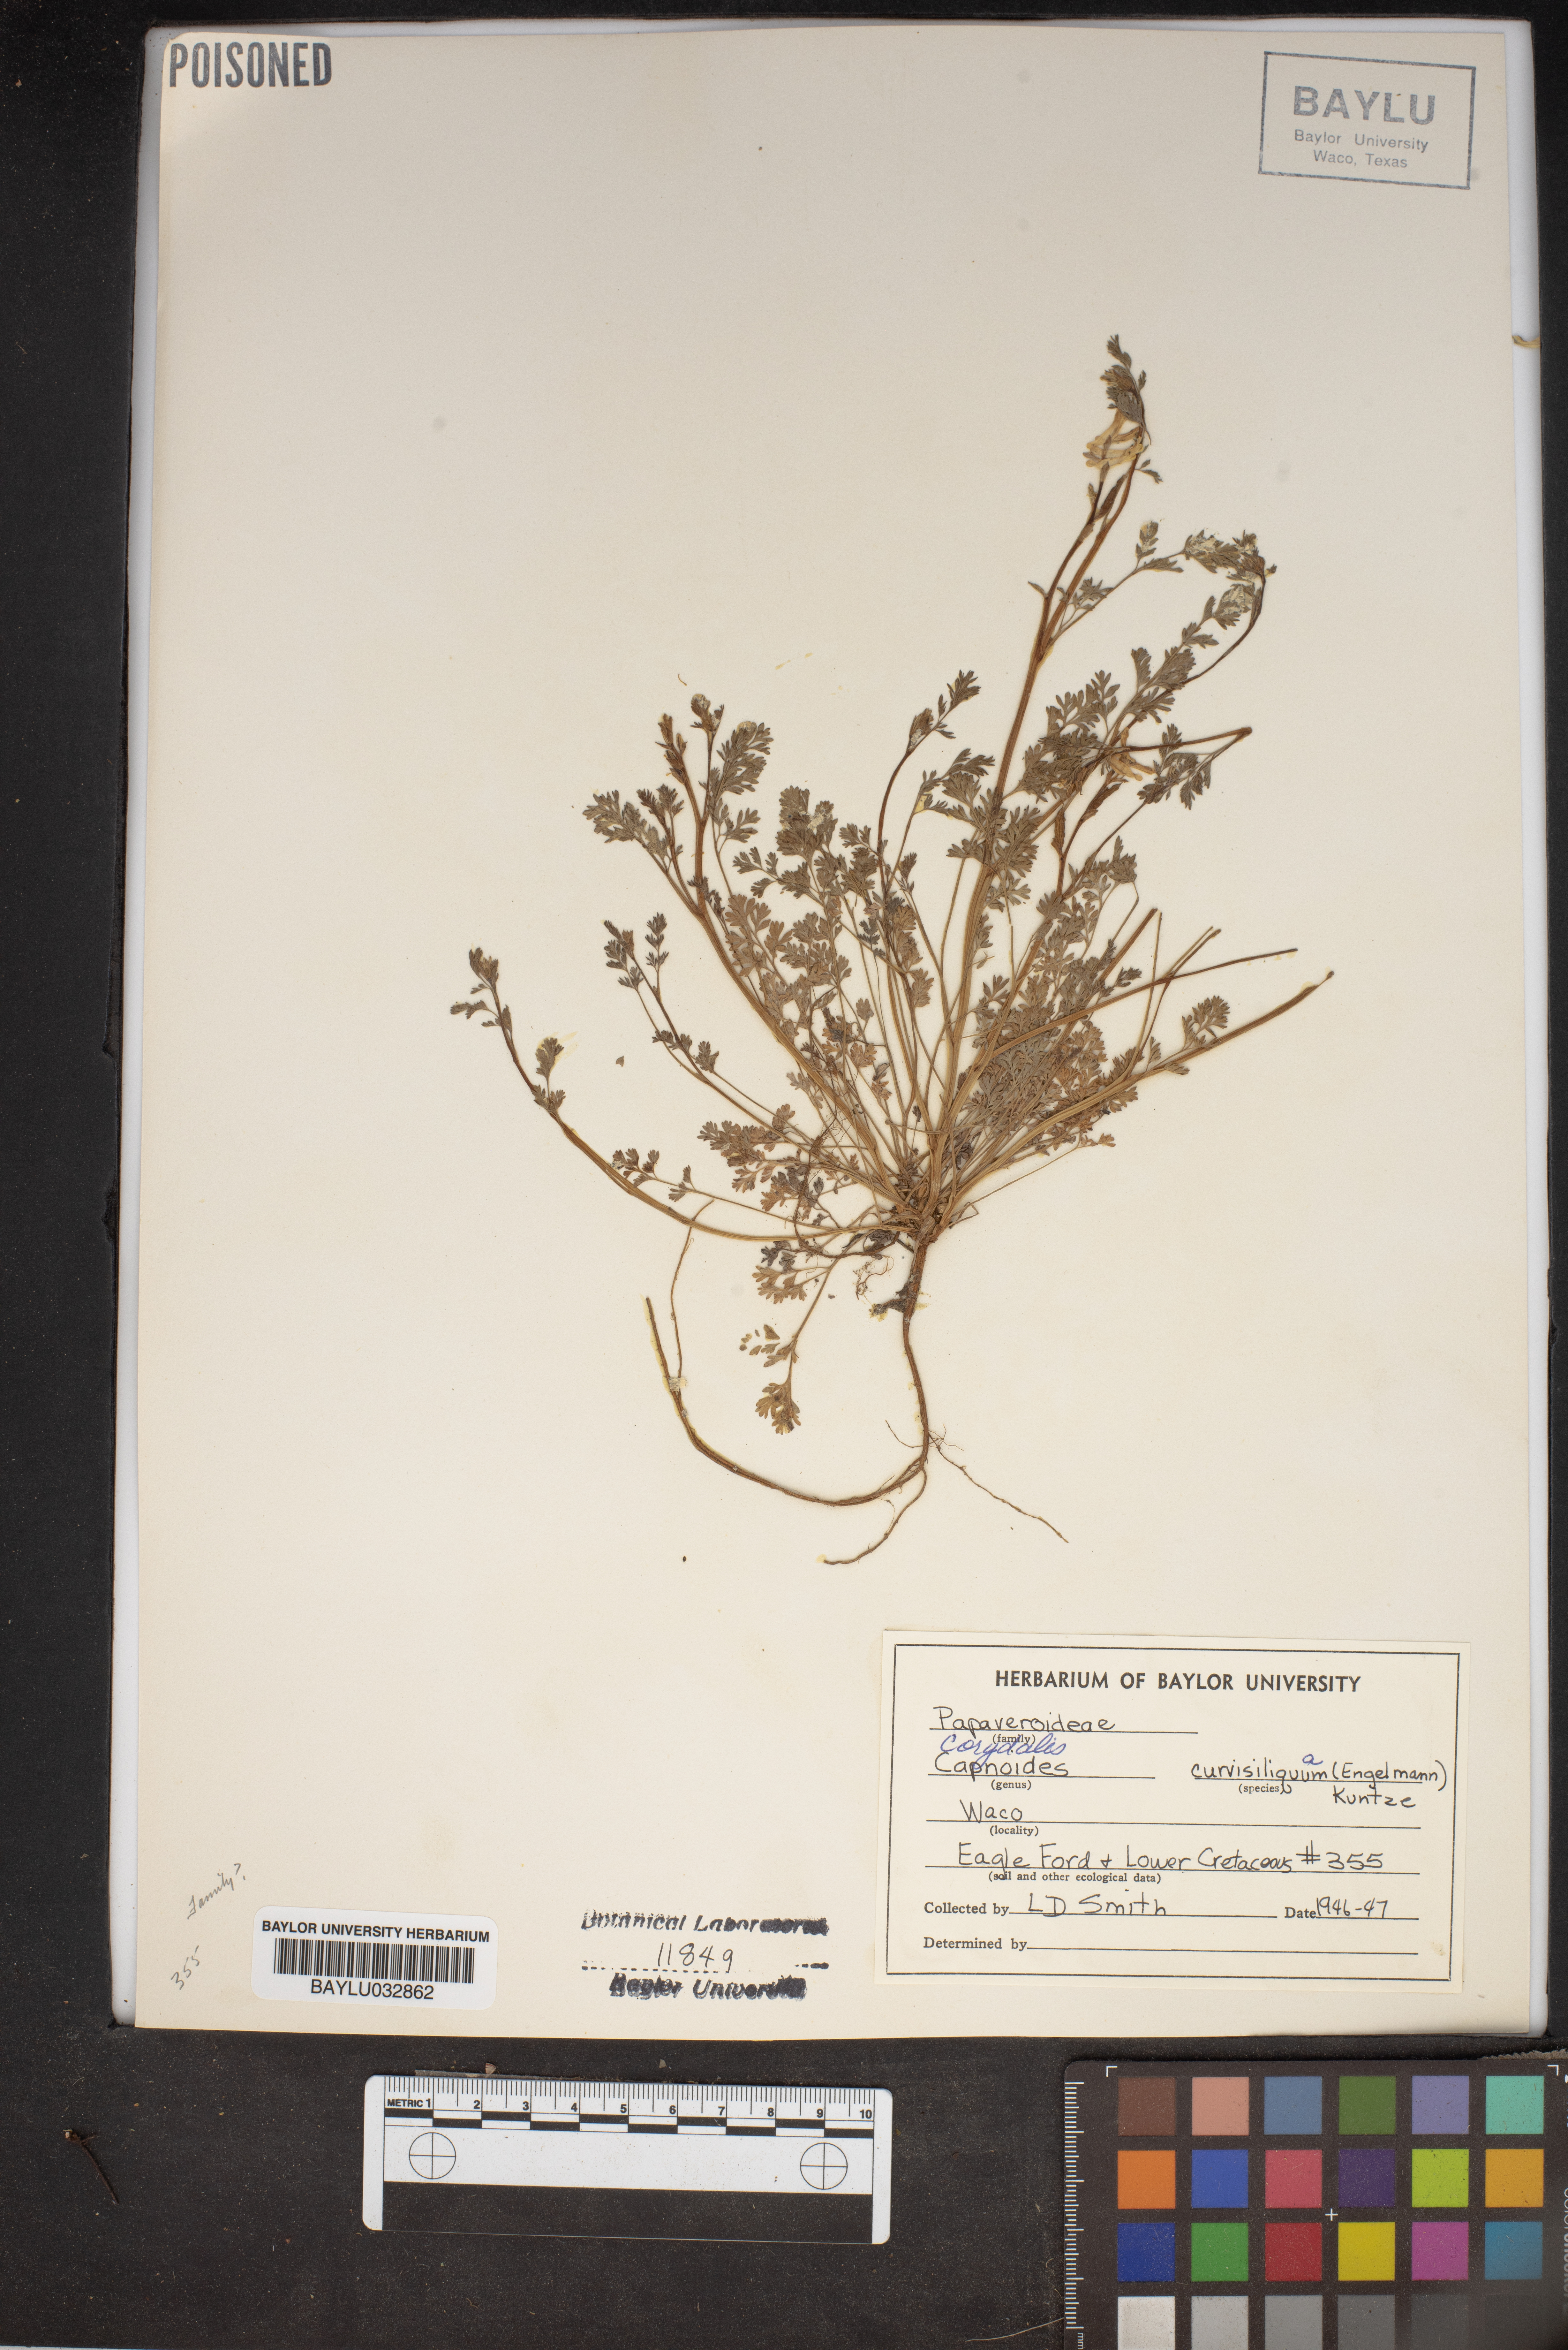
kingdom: Plantae
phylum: Tracheophyta
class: Magnoliopsida
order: Ranunculales
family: Papaveraceae
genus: Corydalis
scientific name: Corydalis curvisiliqua
